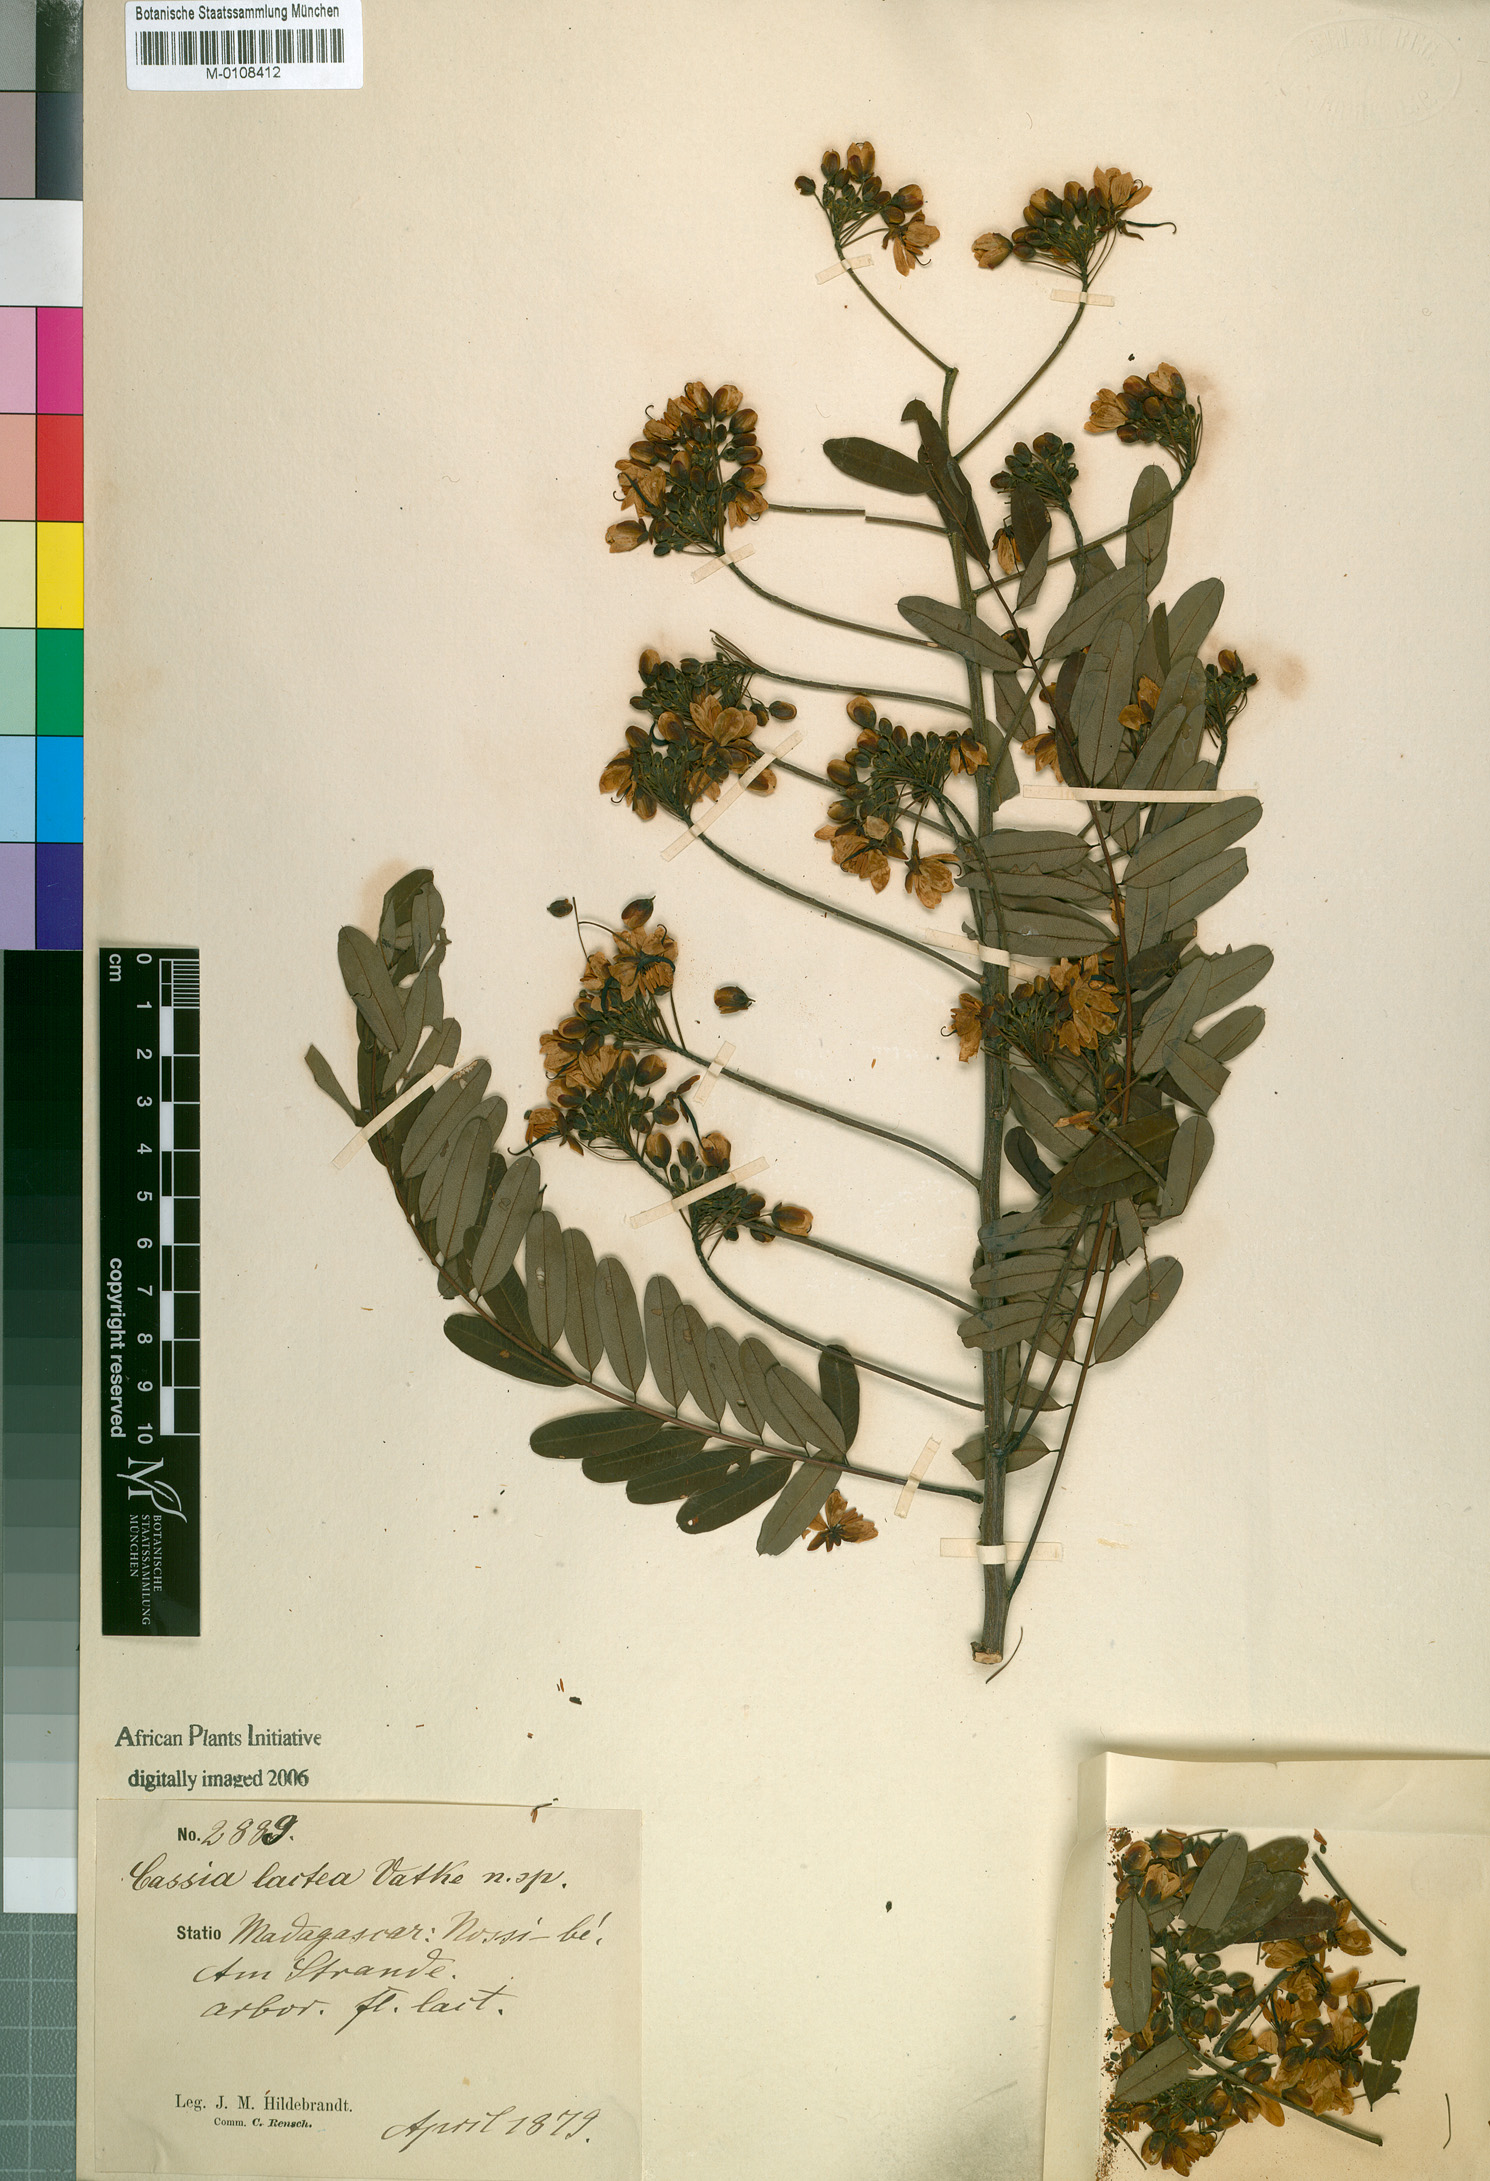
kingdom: Plantae
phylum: Tracheophyta
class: Magnoliopsida
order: Fabales
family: Fabaceae
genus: Senna
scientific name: Senna lactea
